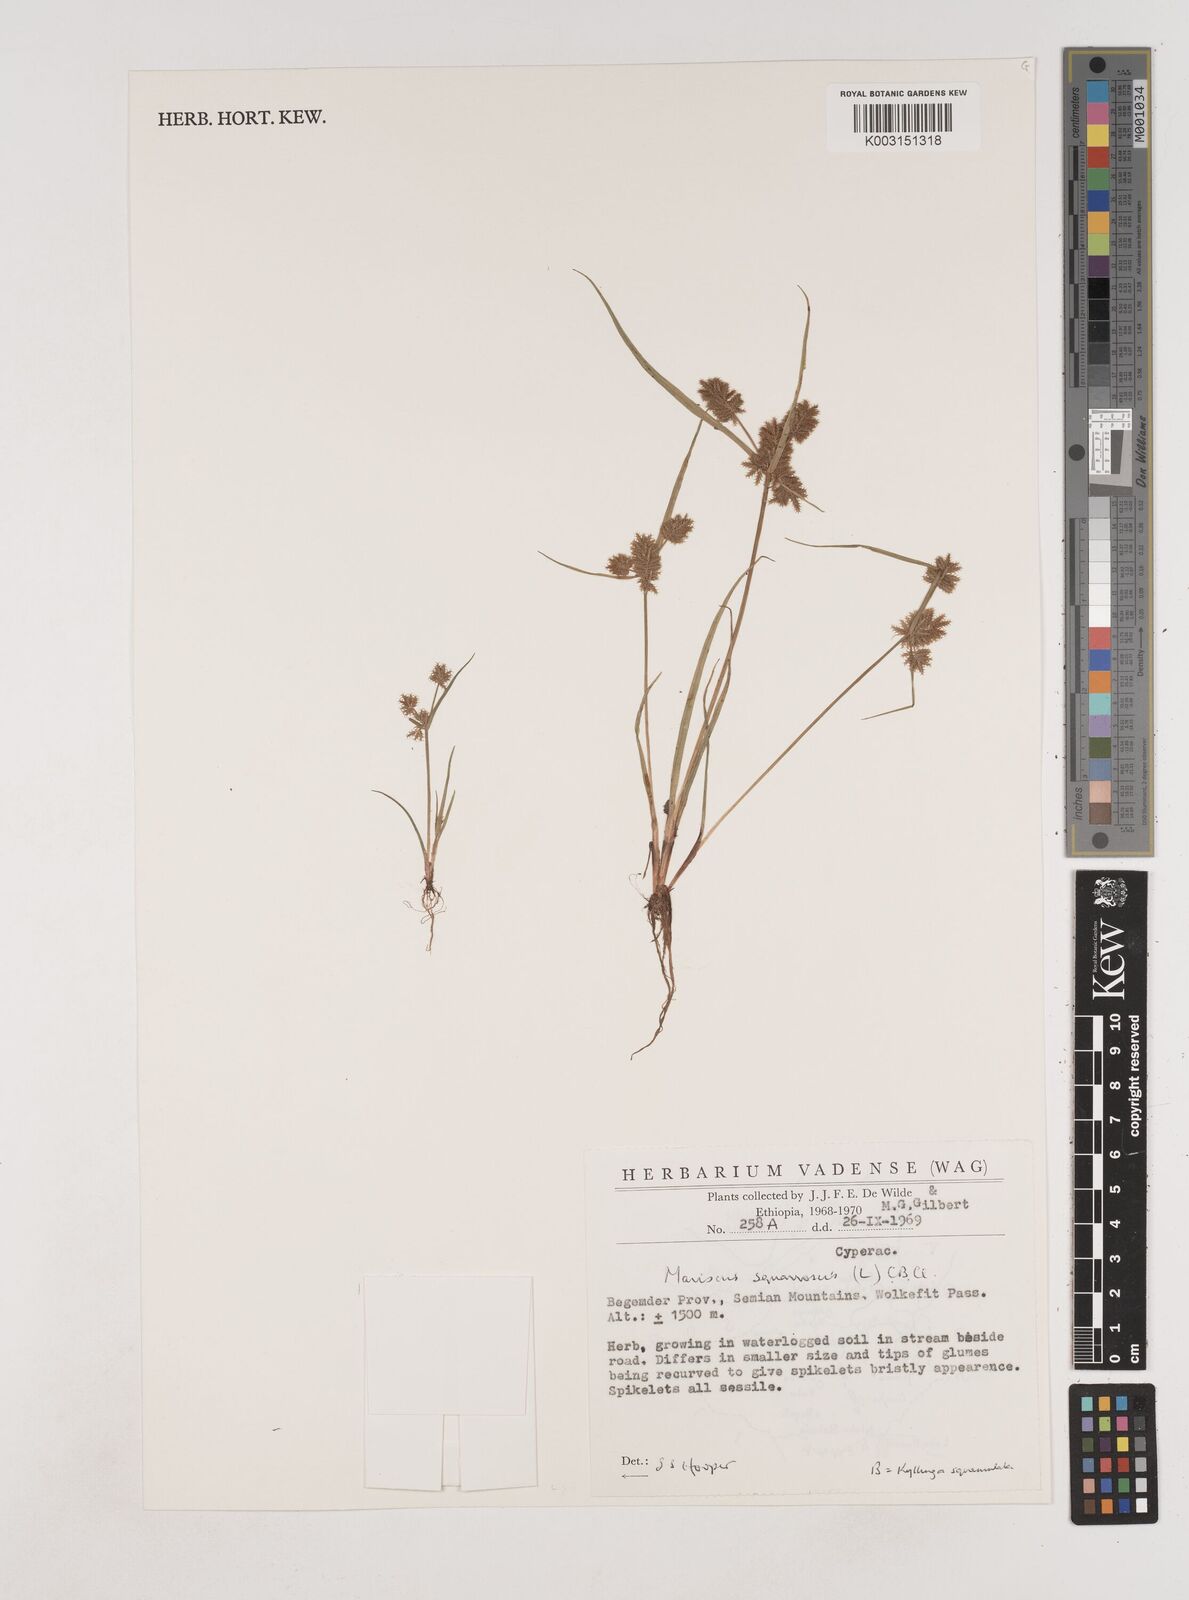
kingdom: Plantae
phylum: Tracheophyta
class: Liliopsida
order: Poales
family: Cyperaceae
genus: Cyperus
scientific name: Cyperus squarrosus
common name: Awned cyperus
